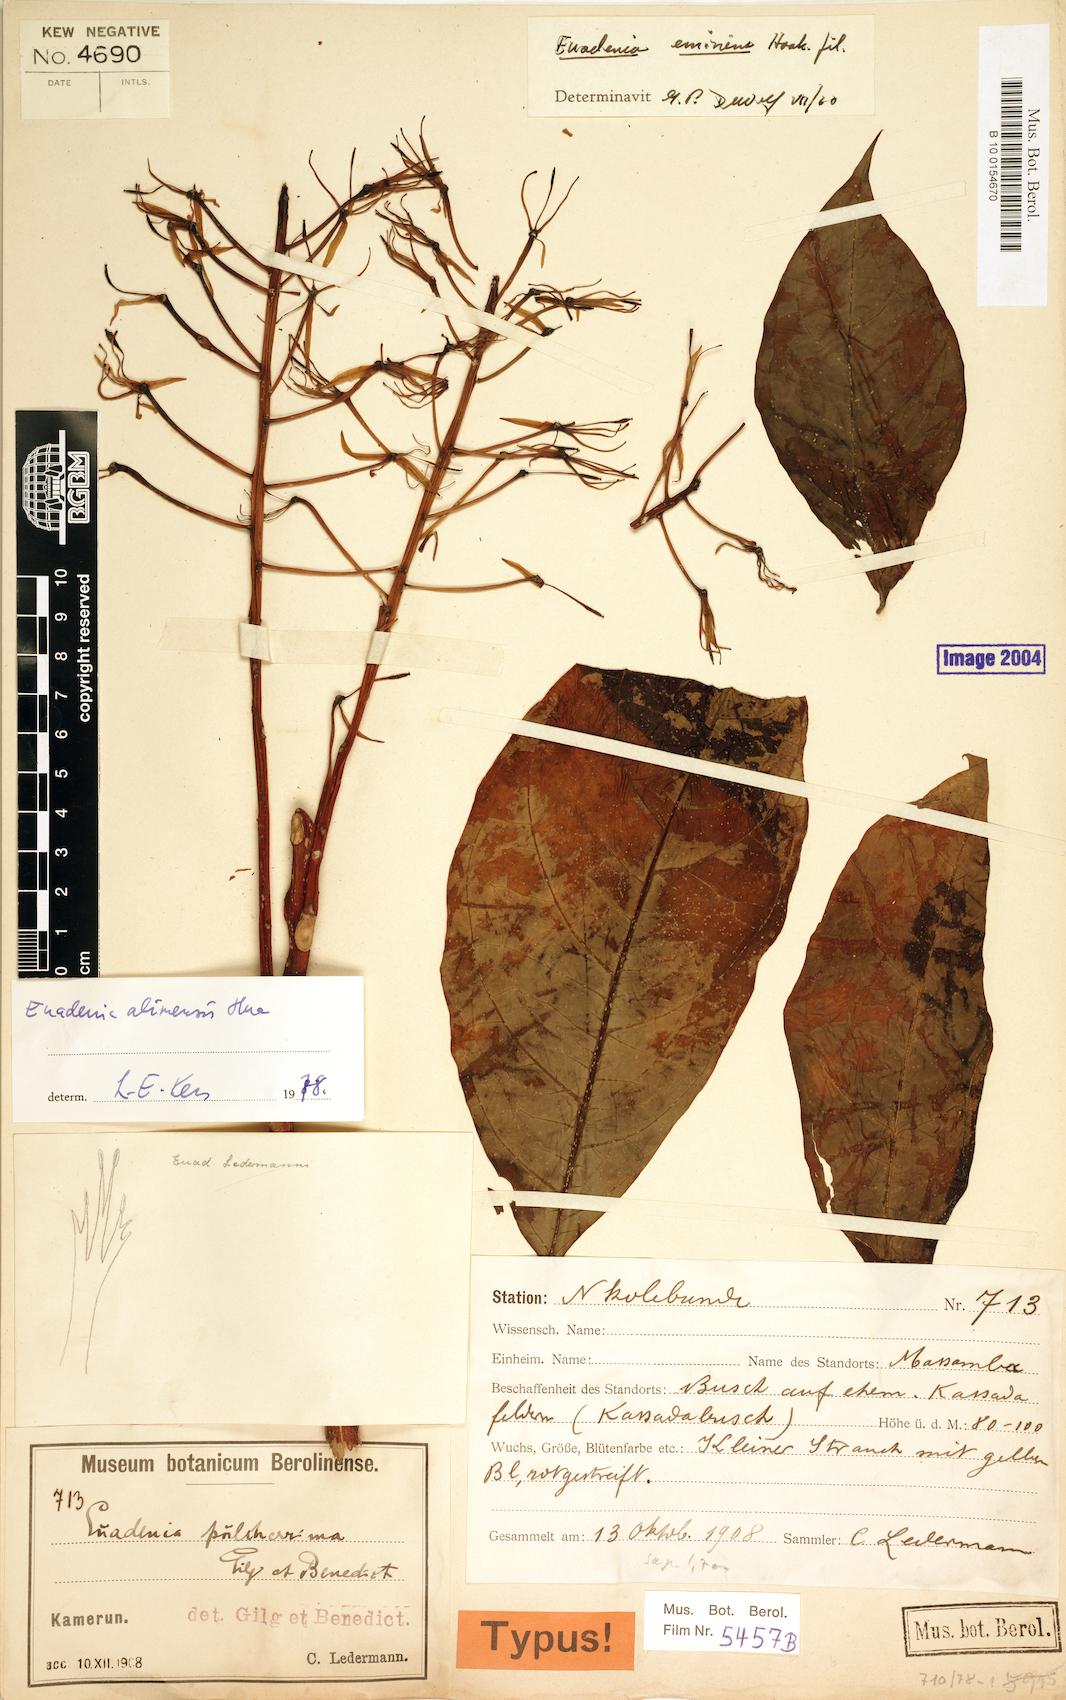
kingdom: Plantae
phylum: Tracheophyta
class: Magnoliopsida
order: Brassicales
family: Capparaceae
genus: Euadenia
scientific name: Euadenia eminens
